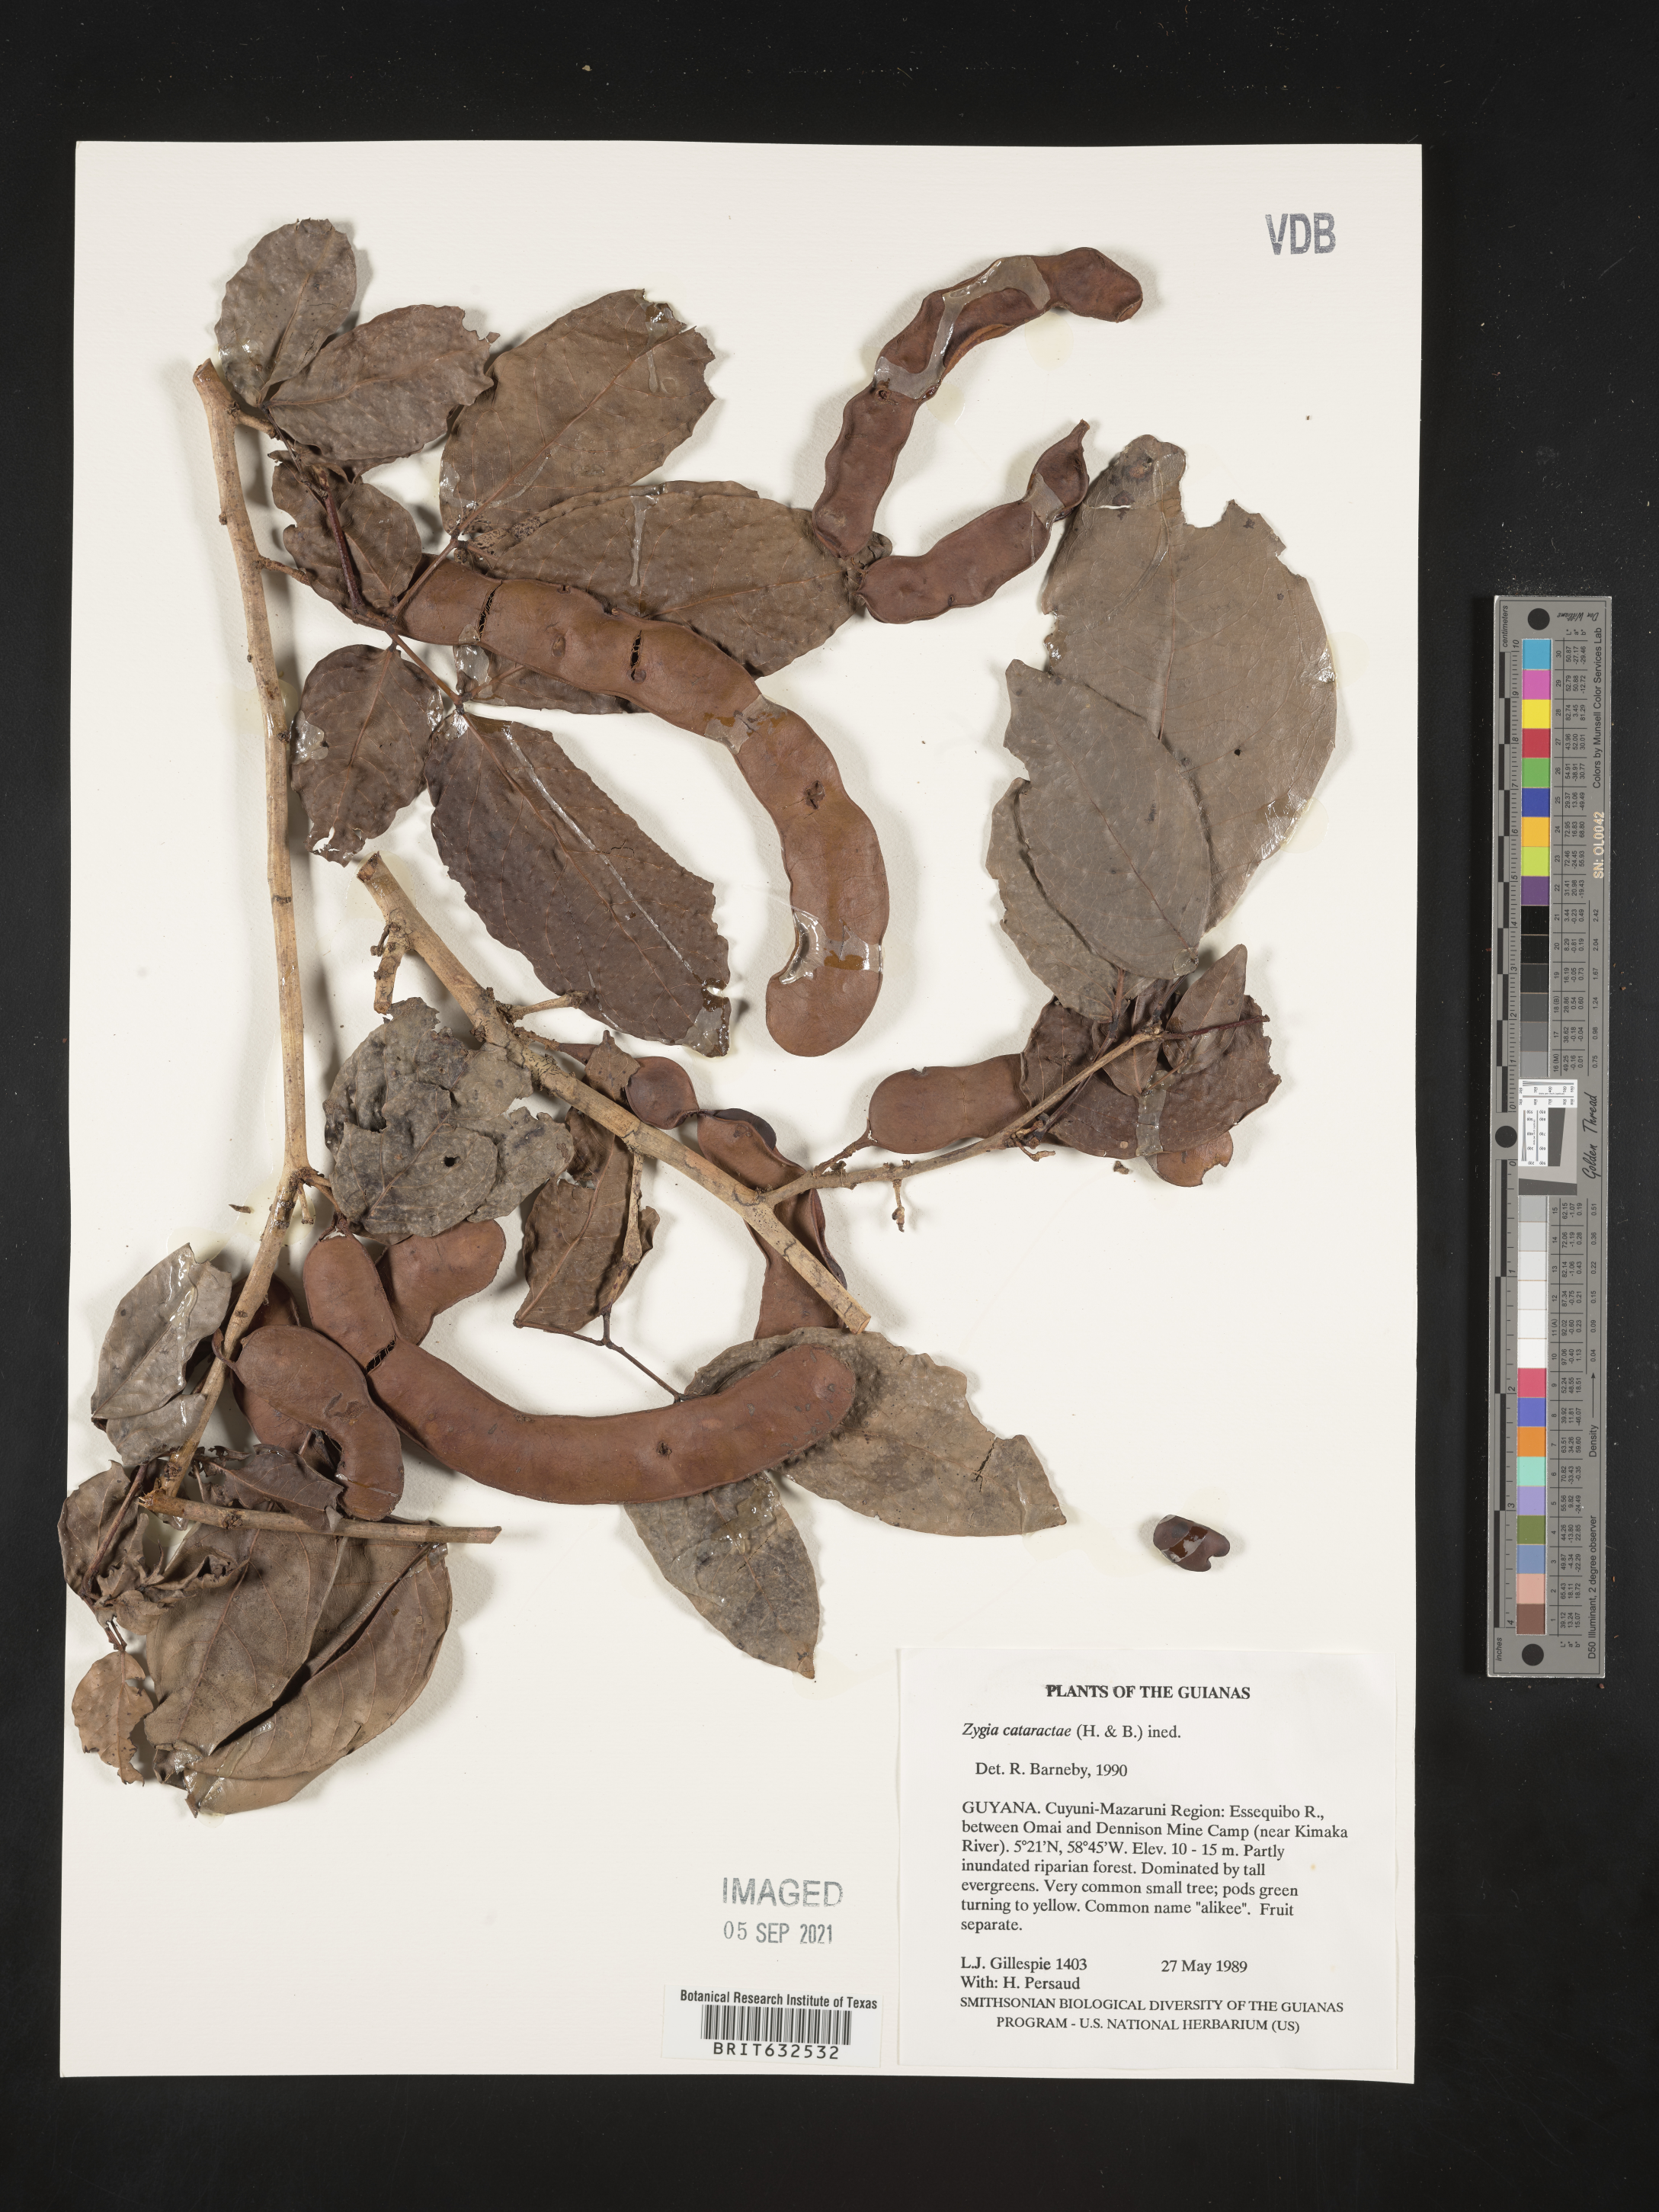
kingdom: Plantae
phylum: Tracheophyta
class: Magnoliopsida
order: Fabales
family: Fabaceae
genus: Zygia
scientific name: Zygia
